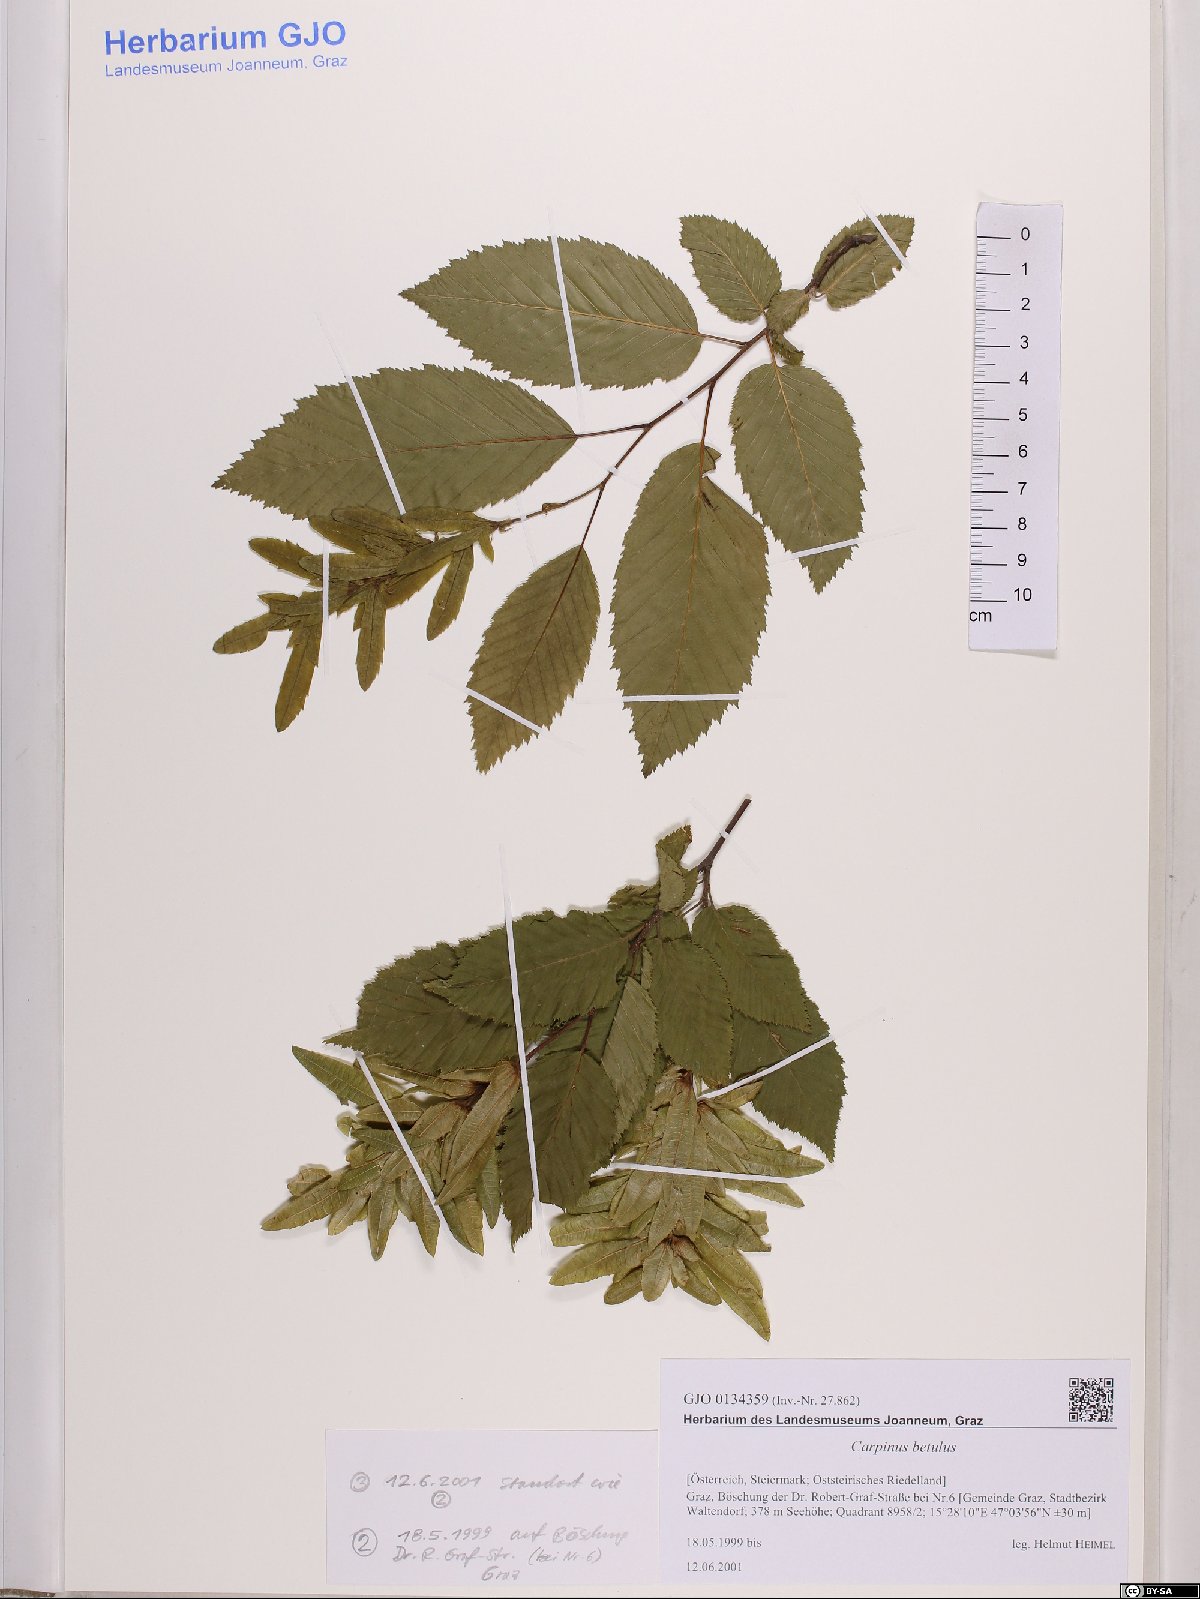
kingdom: Plantae
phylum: Tracheophyta
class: Magnoliopsida
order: Fagales
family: Betulaceae
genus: Carpinus
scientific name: Carpinus betulus
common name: Hornbeam
